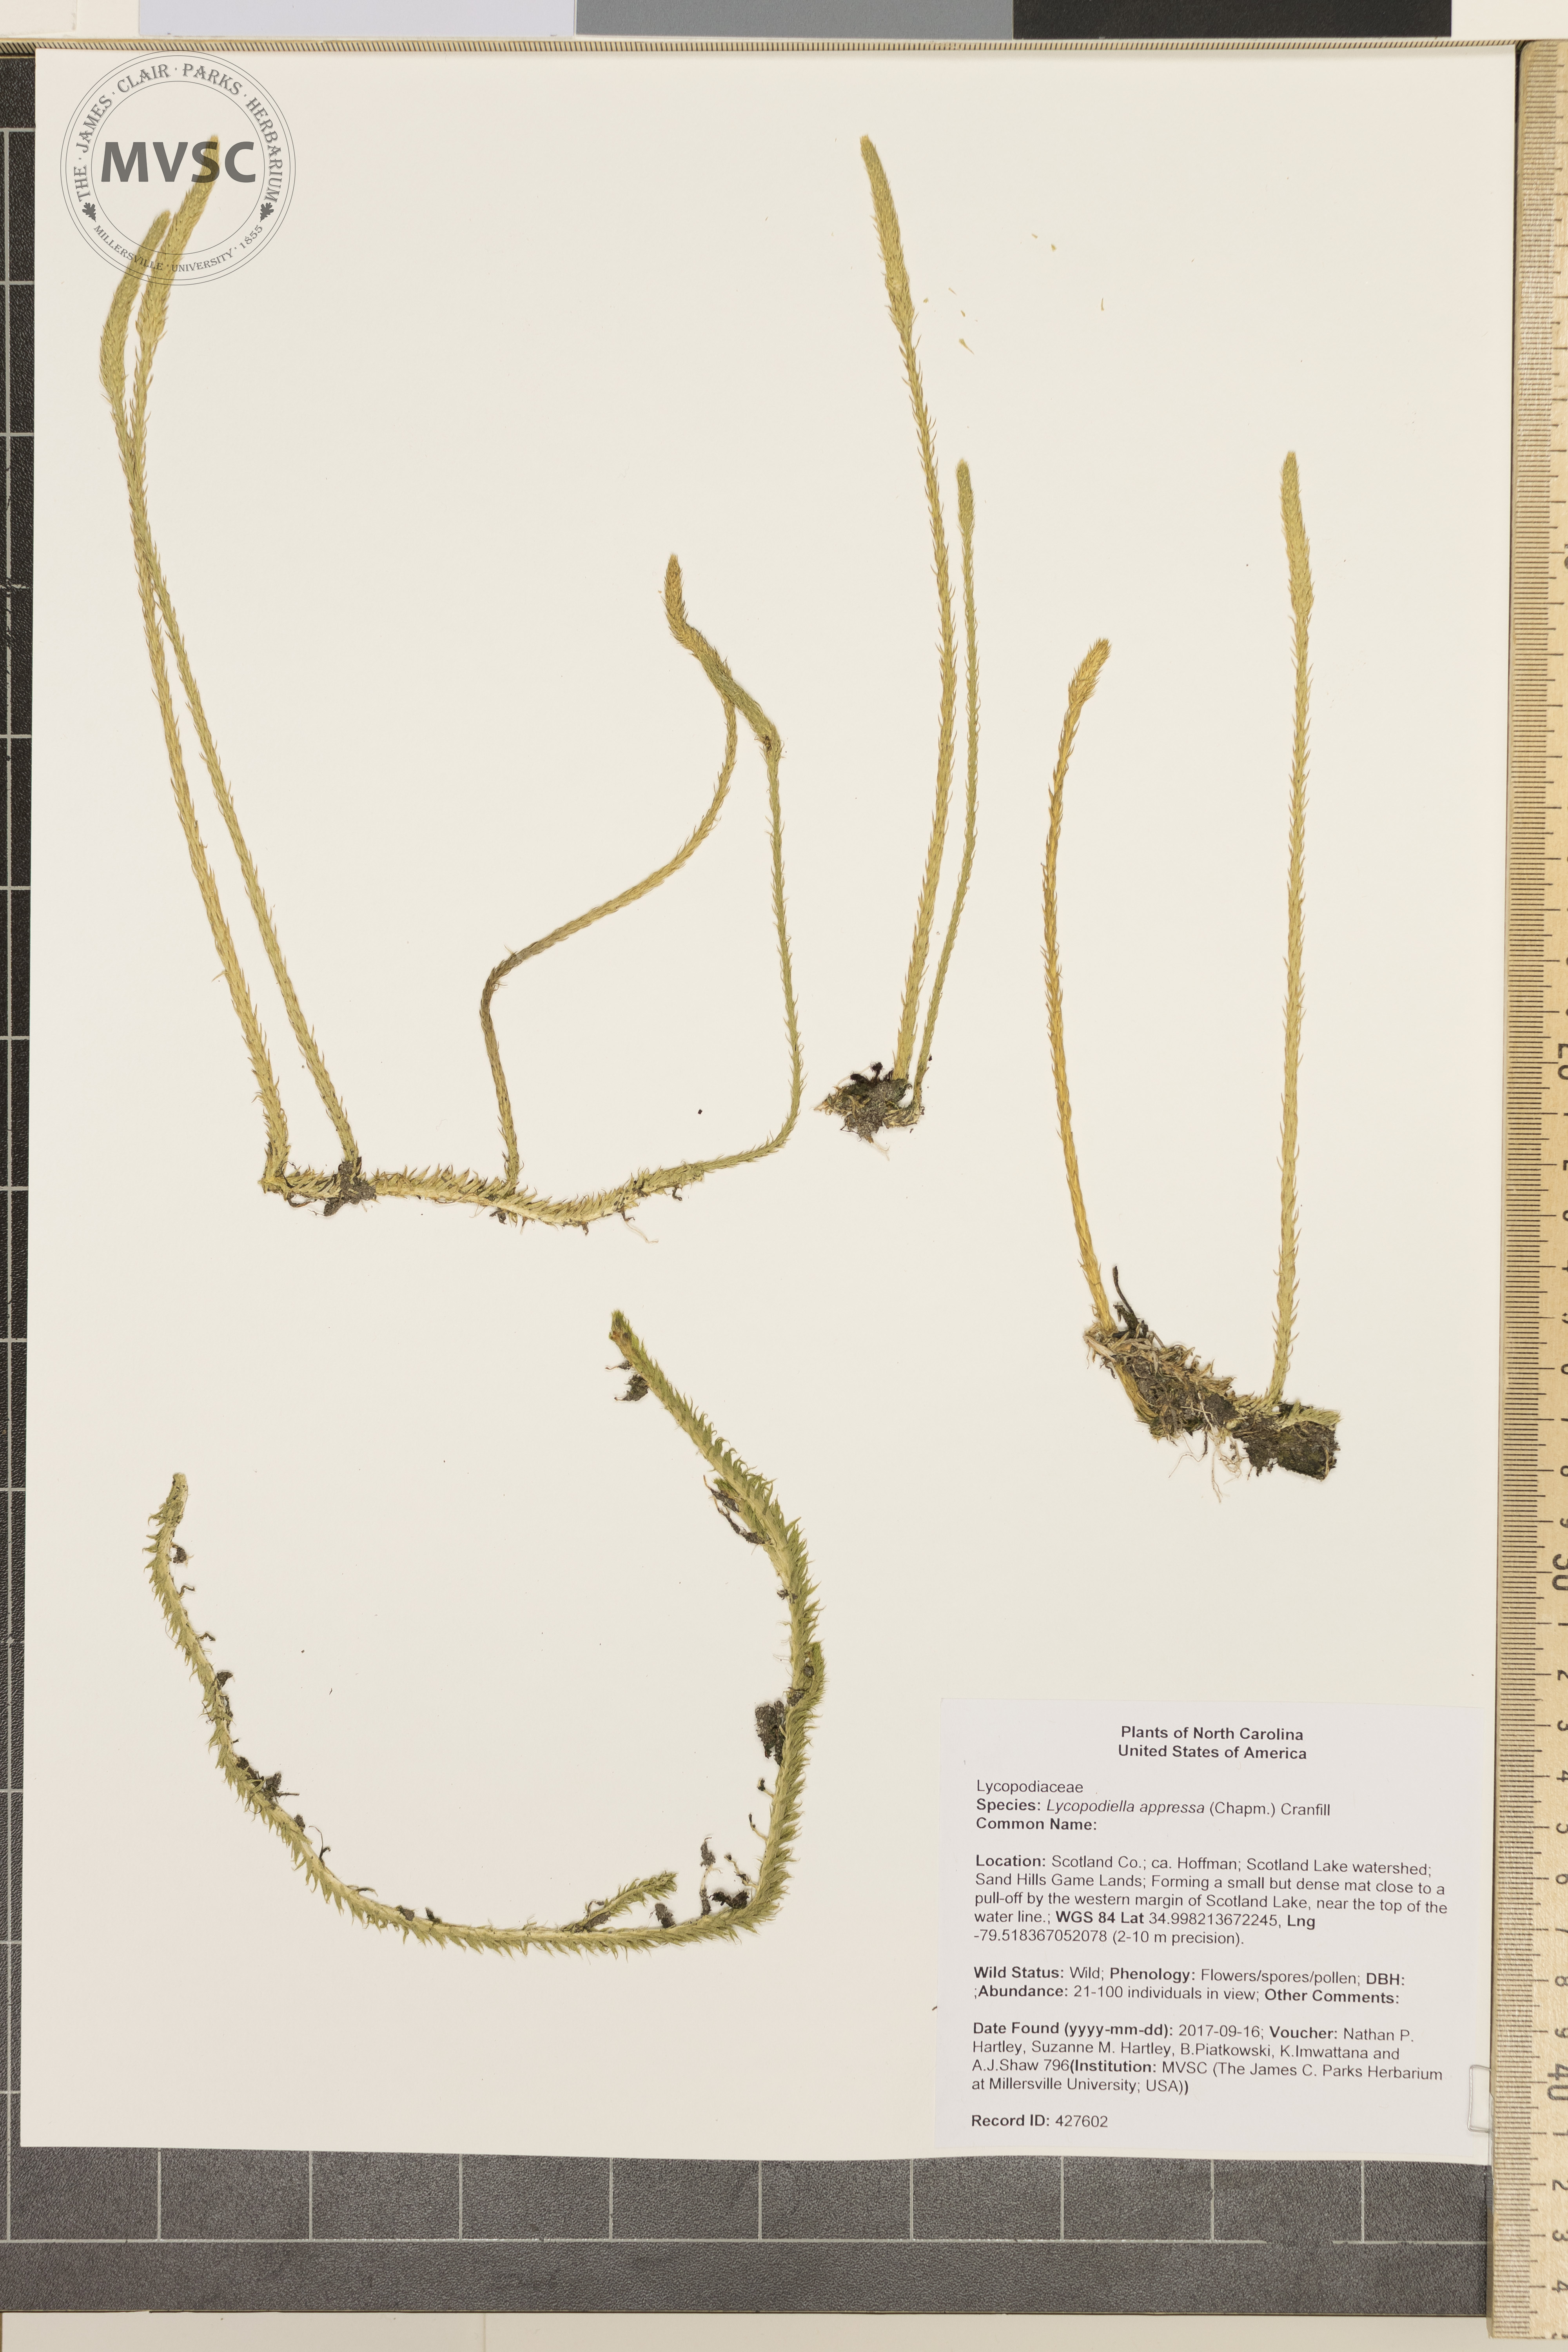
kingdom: Plantae
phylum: Tracheophyta
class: Lycopodiopsida
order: Lycopodiales
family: Lycopodiaceae
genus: Lycopodiella
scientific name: Lycopodiella appressa
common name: Appressed bog clubmoss
